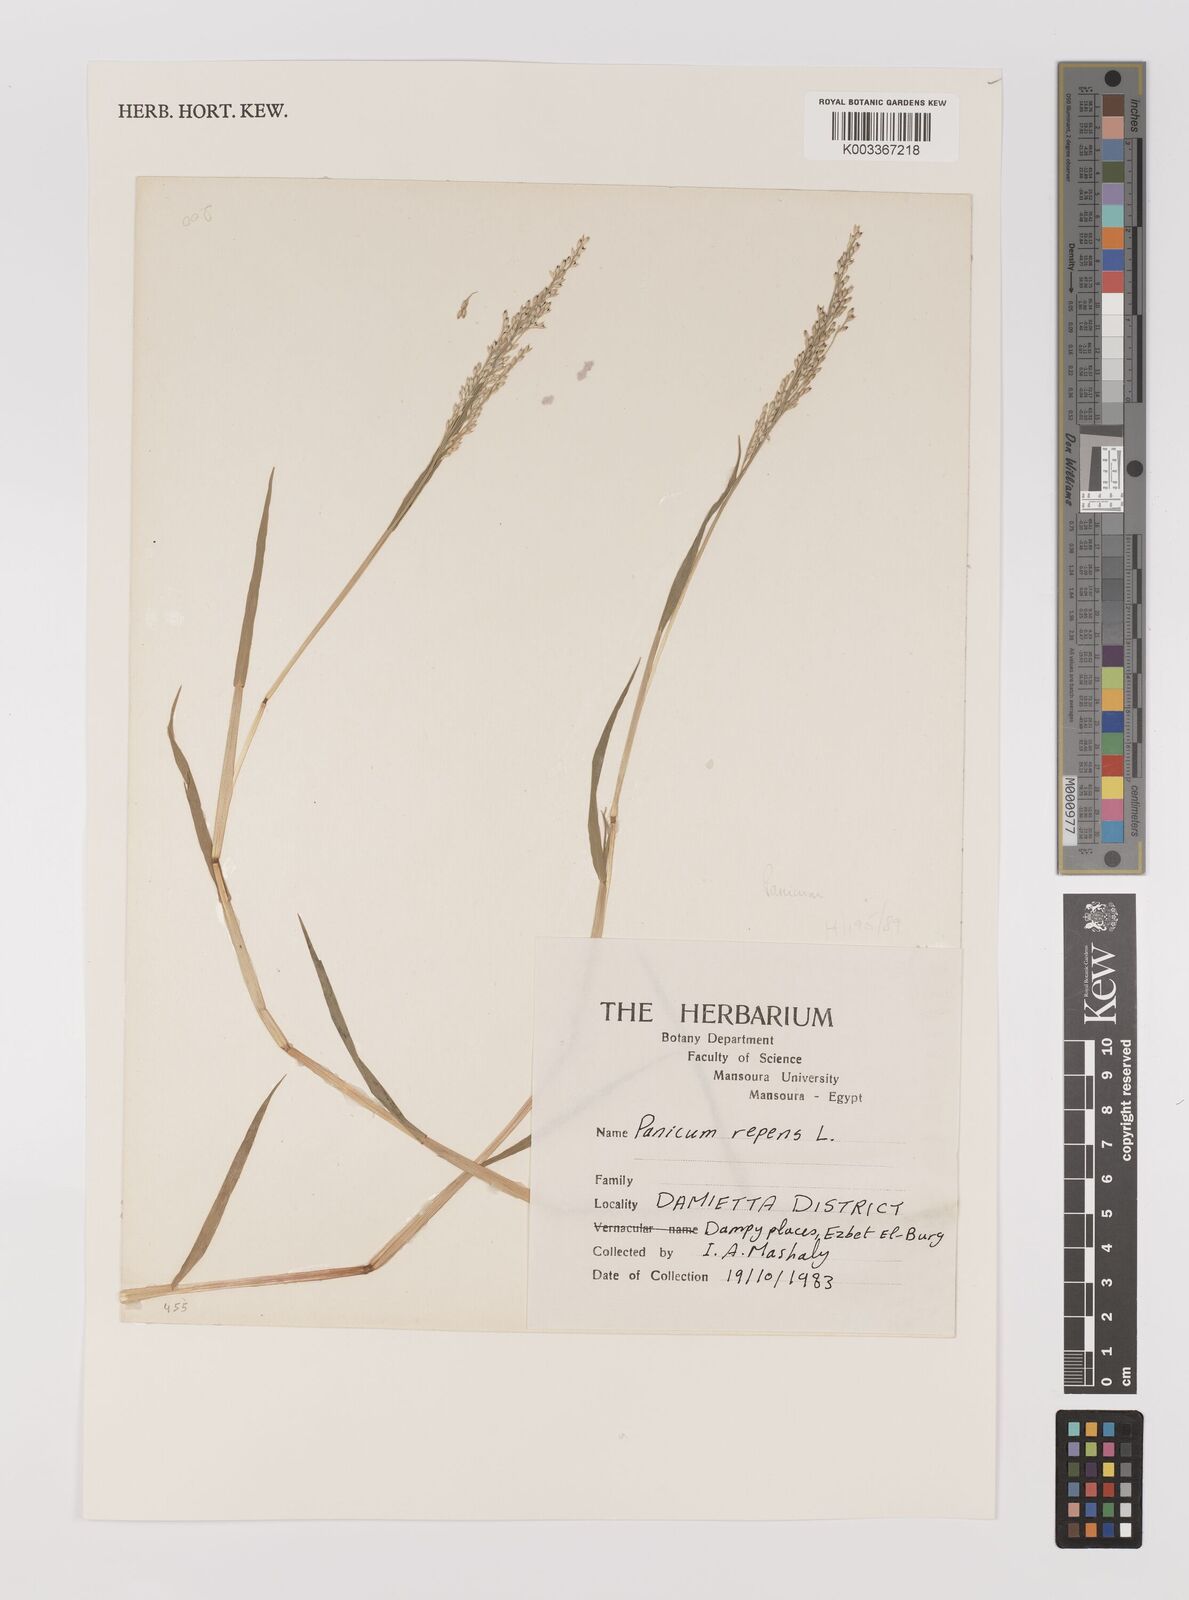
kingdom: Plantae
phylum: Tracheophyta
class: Liliopsida
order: Poales
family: Poaceae
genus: Panicum
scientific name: Panicum repens
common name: Torpedo grass
